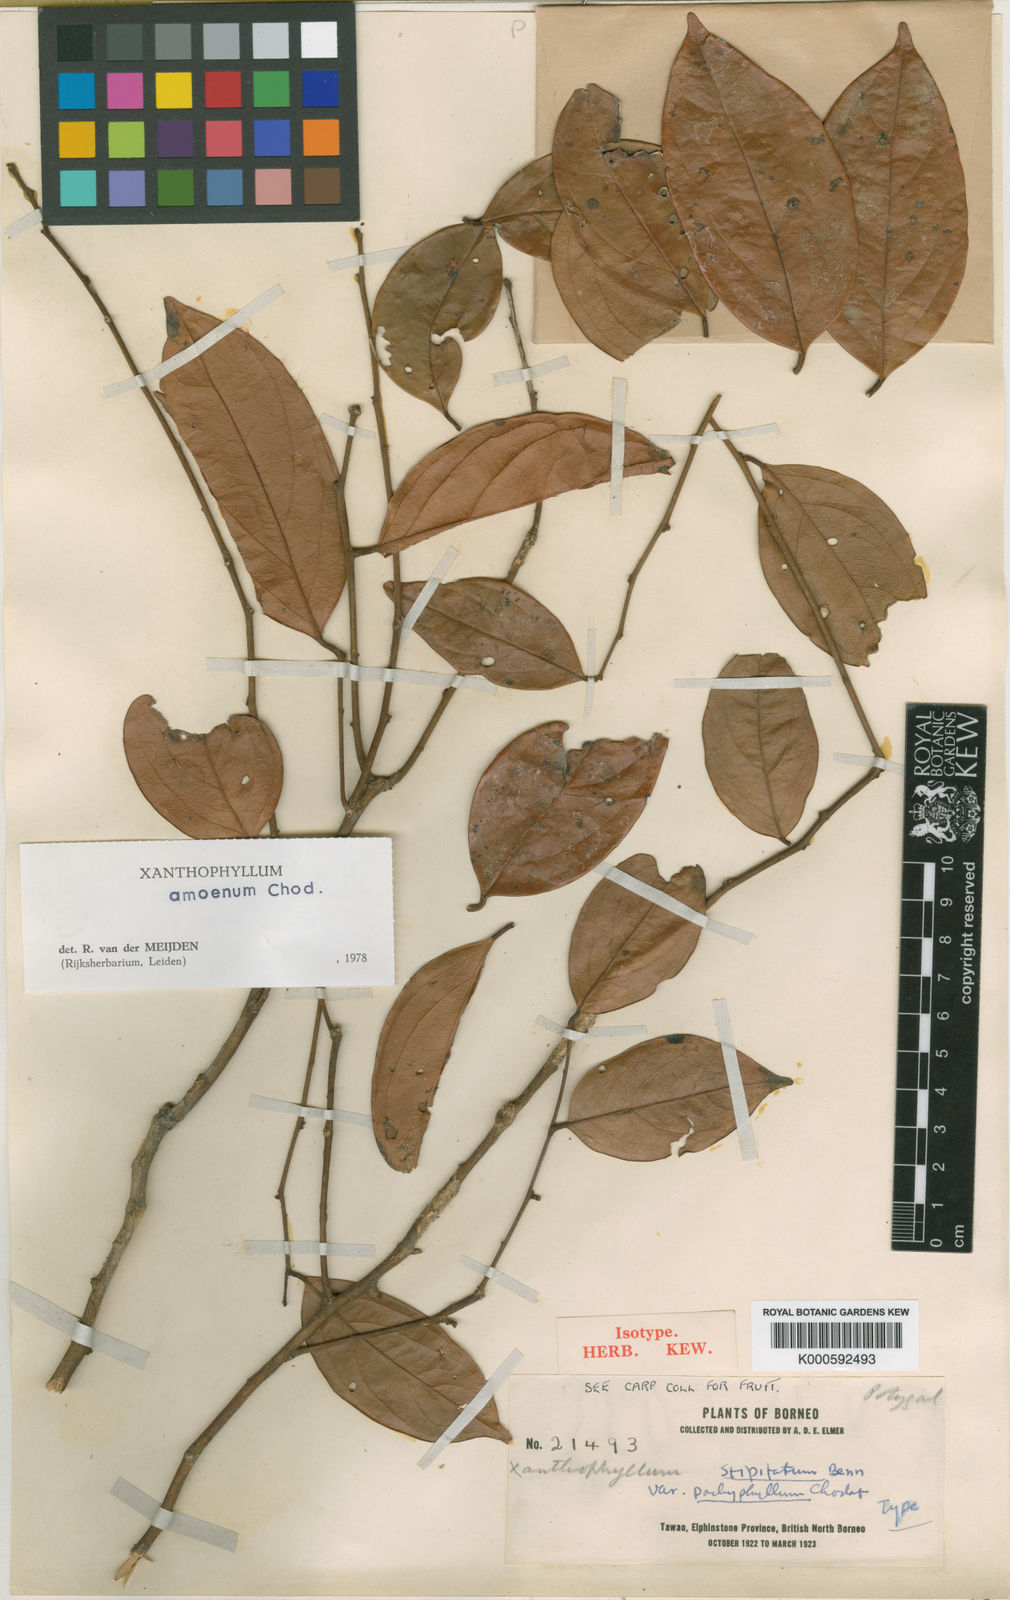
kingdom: Plantae
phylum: Tracheophyta
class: Magnoliopsida
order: Fabales
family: Polygalaceae
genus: Xanthophyllum
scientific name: Xanthophyllum stipitatum
